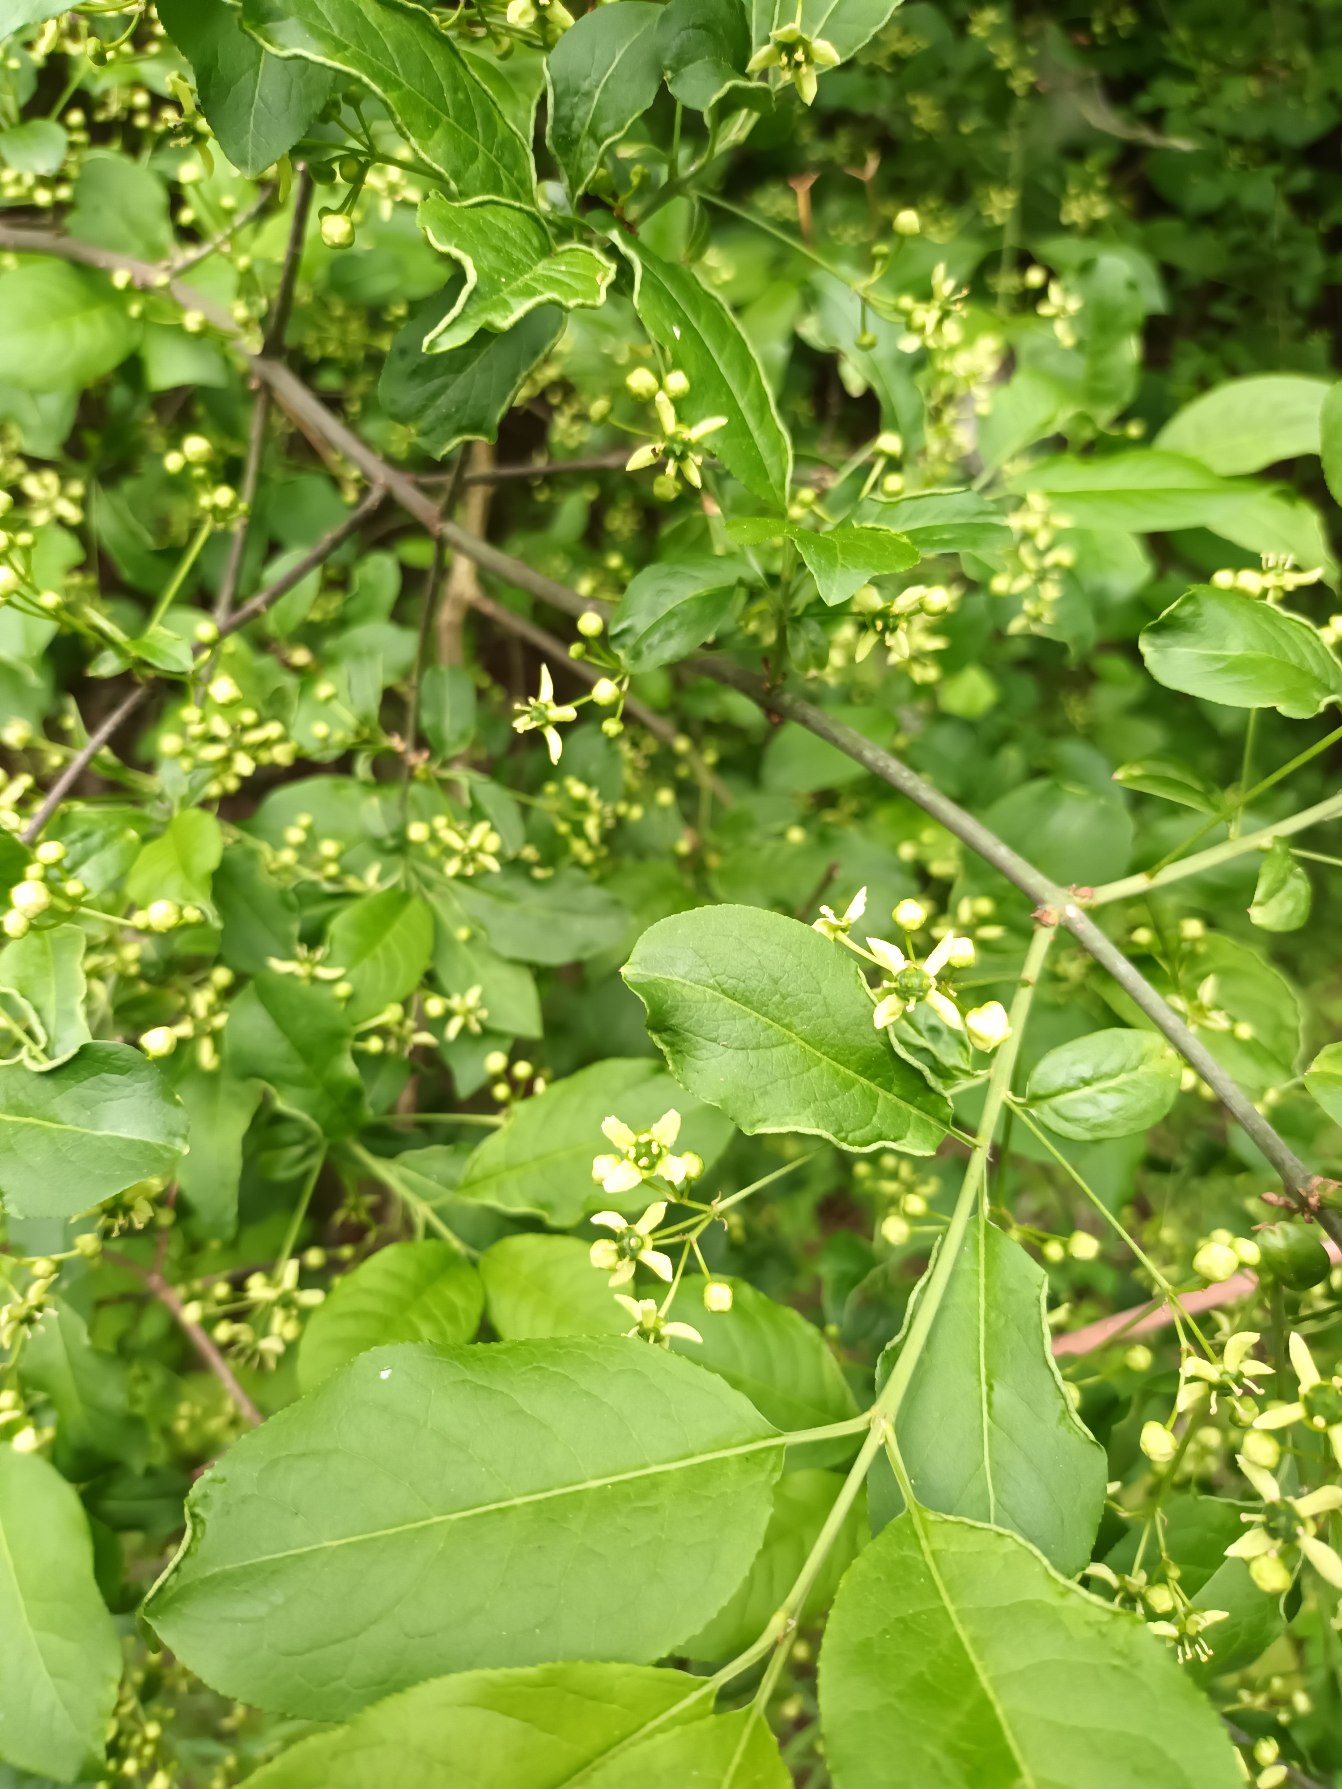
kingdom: Plantae
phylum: Tracheophyta
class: Magnoliopsida
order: Celastrales
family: Celastraceae
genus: Euonymus
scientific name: Euonymus europaeus
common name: Benved
